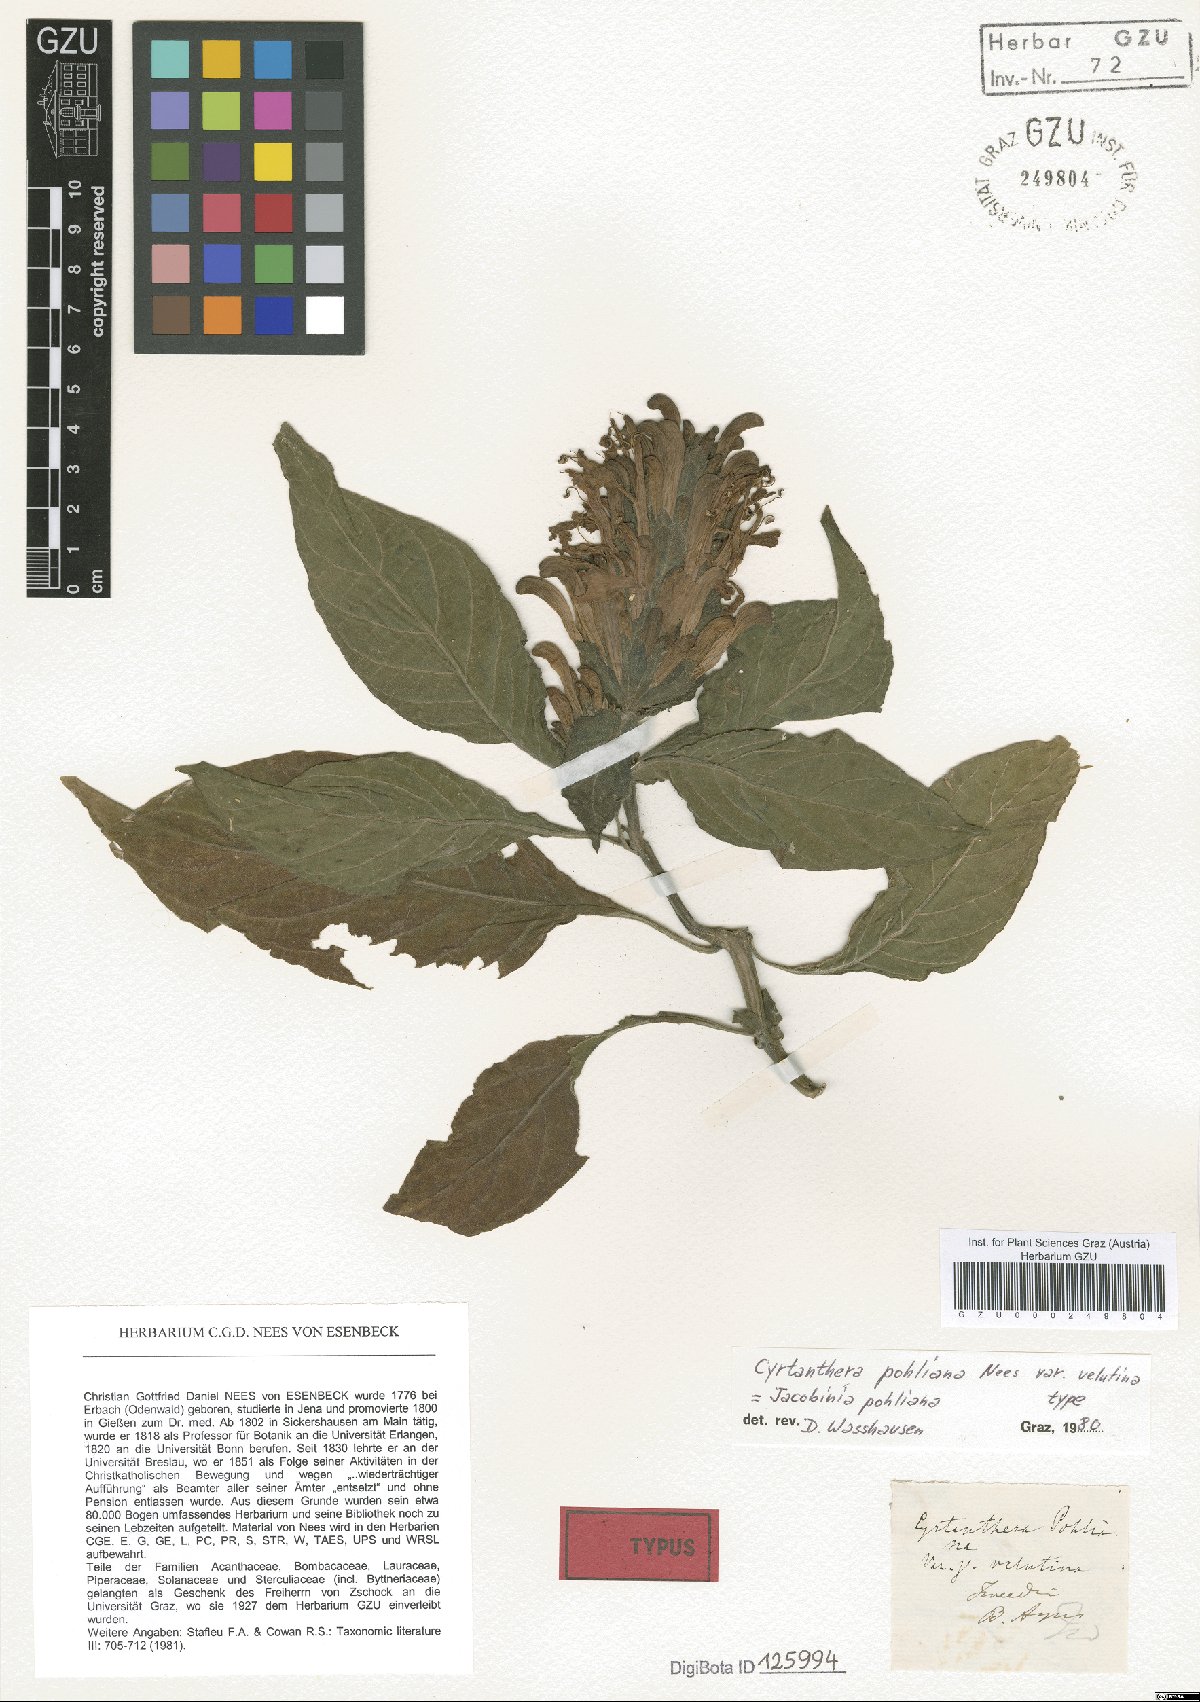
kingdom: Plantae
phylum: Tracheophyta
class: Magnoliopsida
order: Lamiales
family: Acanthaceae
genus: Justicia
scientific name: Justicia carnea
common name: Brazilian-plume
